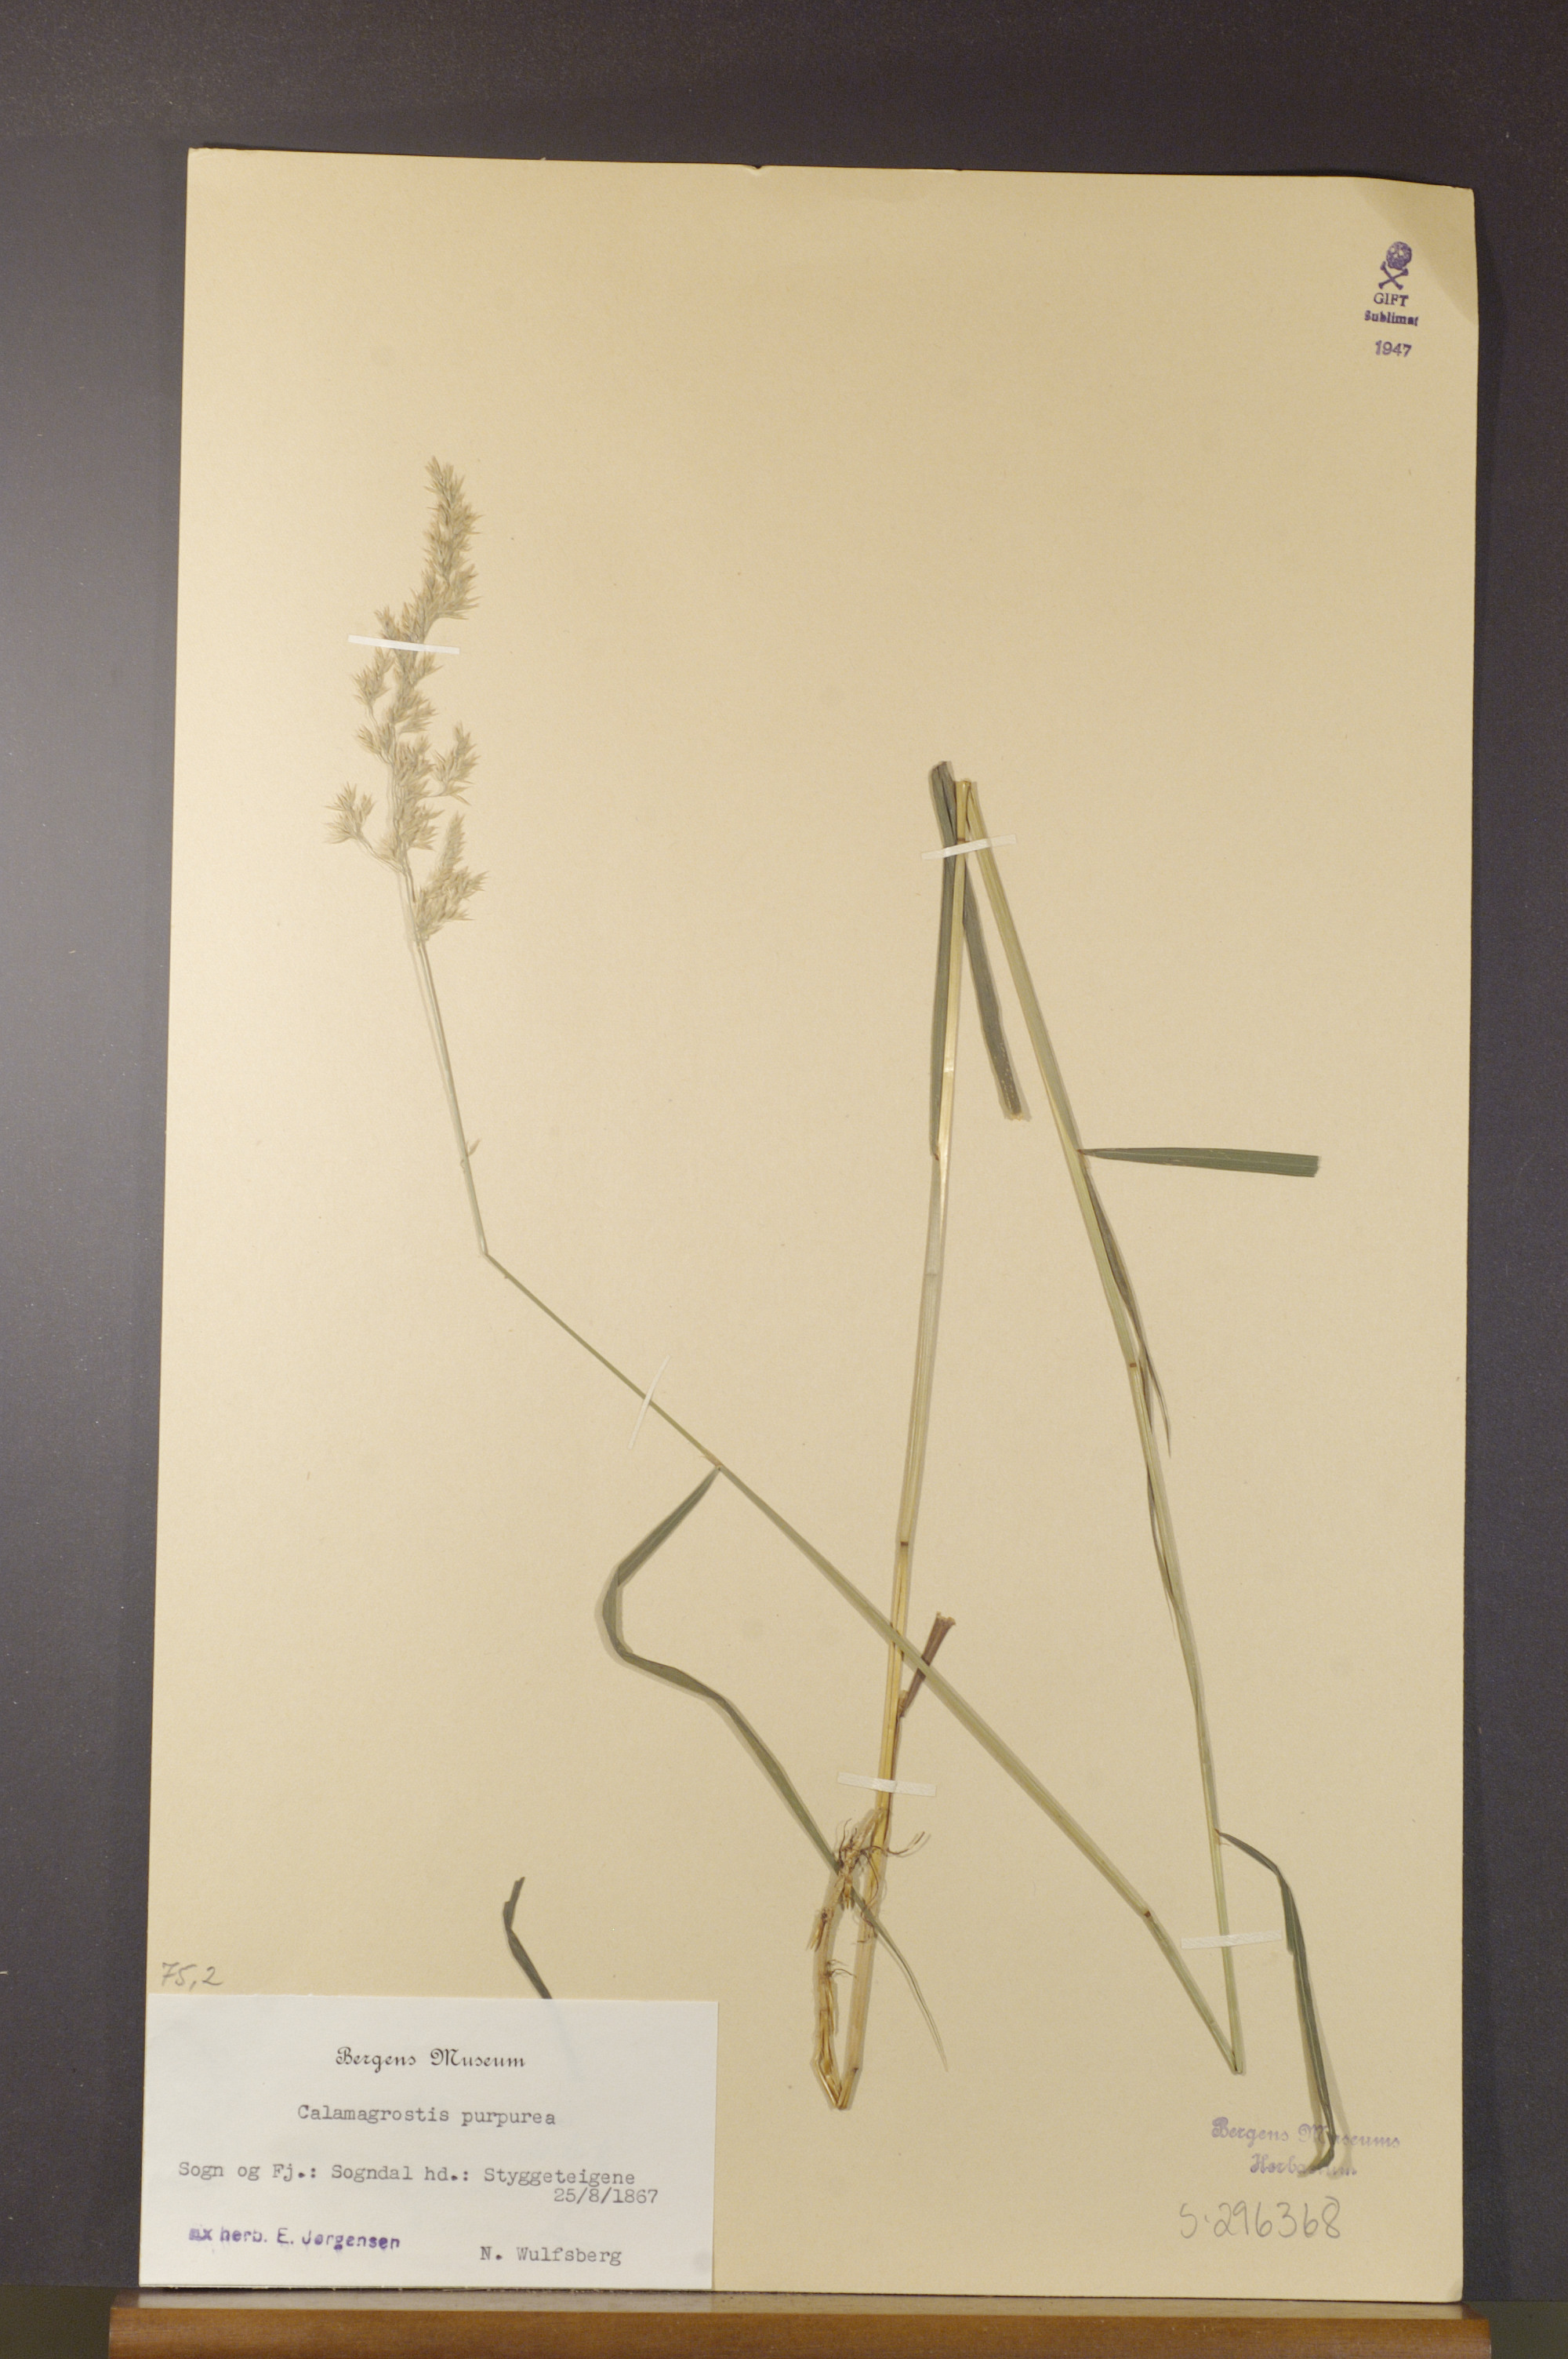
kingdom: Plantae
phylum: Tracheophyta
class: Liliopsida
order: Poales
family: Poaceae
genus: Calamagrostis
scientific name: Calamagrostis purpurea
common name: Scandinavian small-reed
